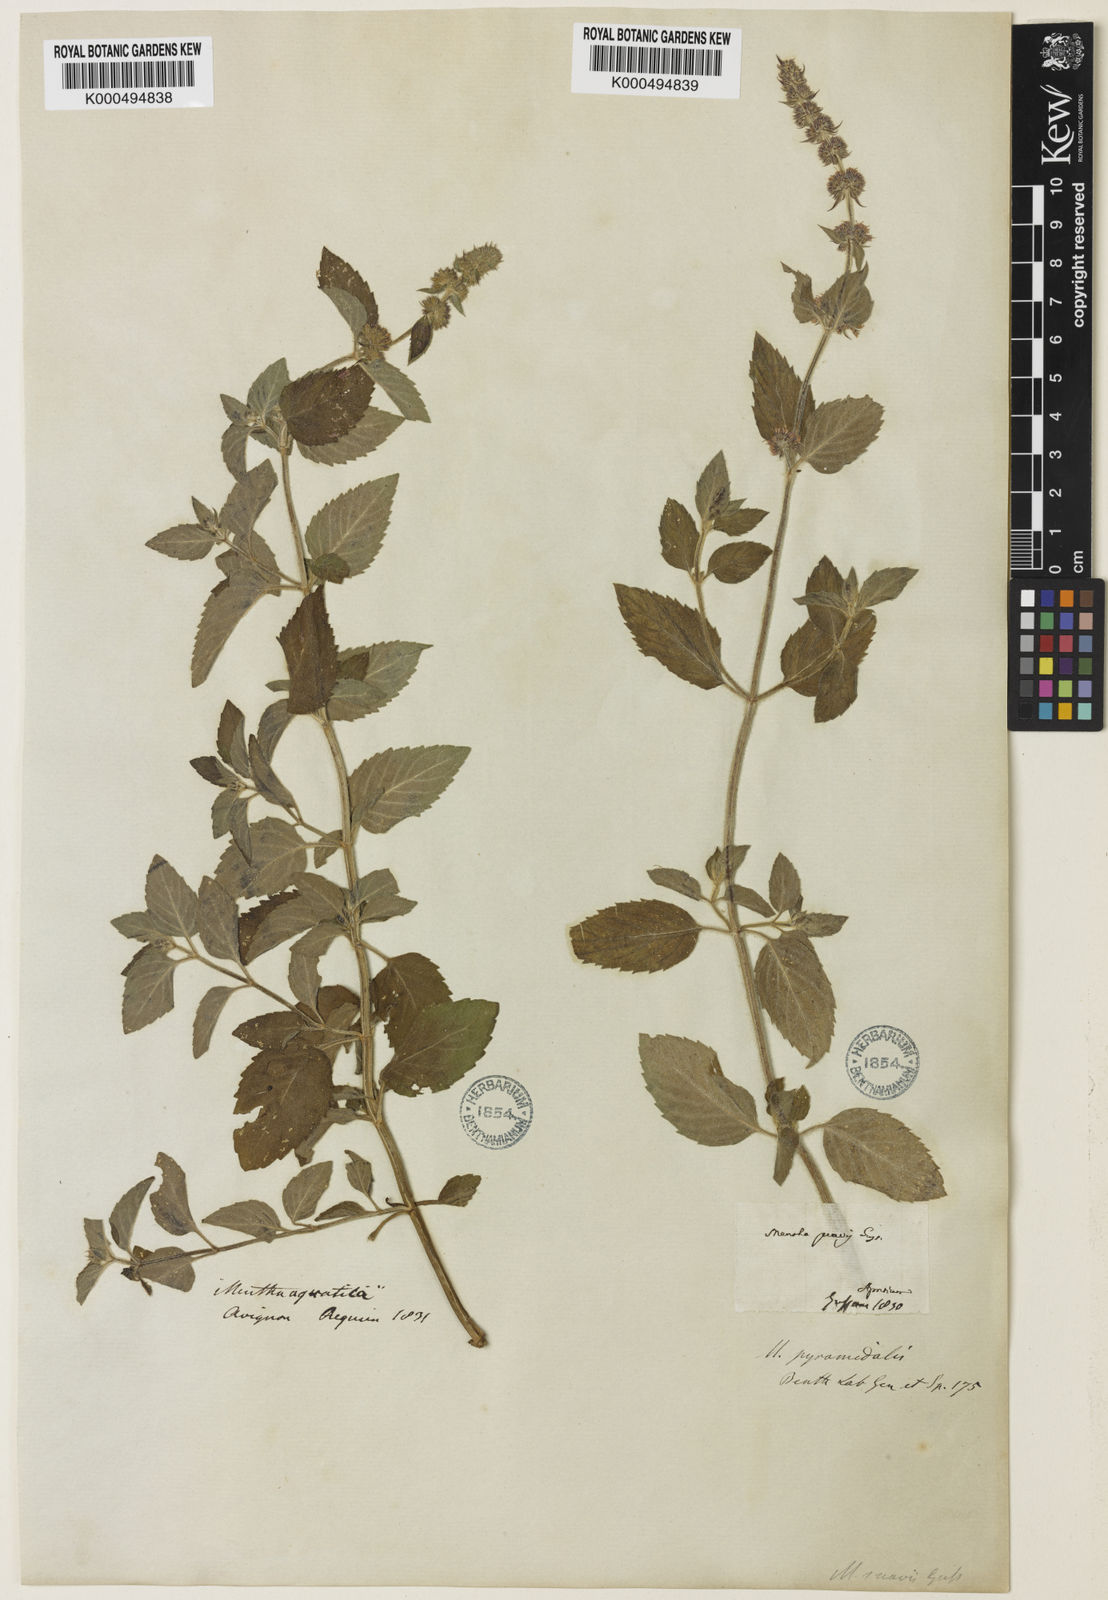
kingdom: Plantae
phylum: Tracheophyta
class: Magnoliopsida
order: Lamiales
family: Lamiaceae
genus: Mentha
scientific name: Mentha piperita
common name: Peppermint
